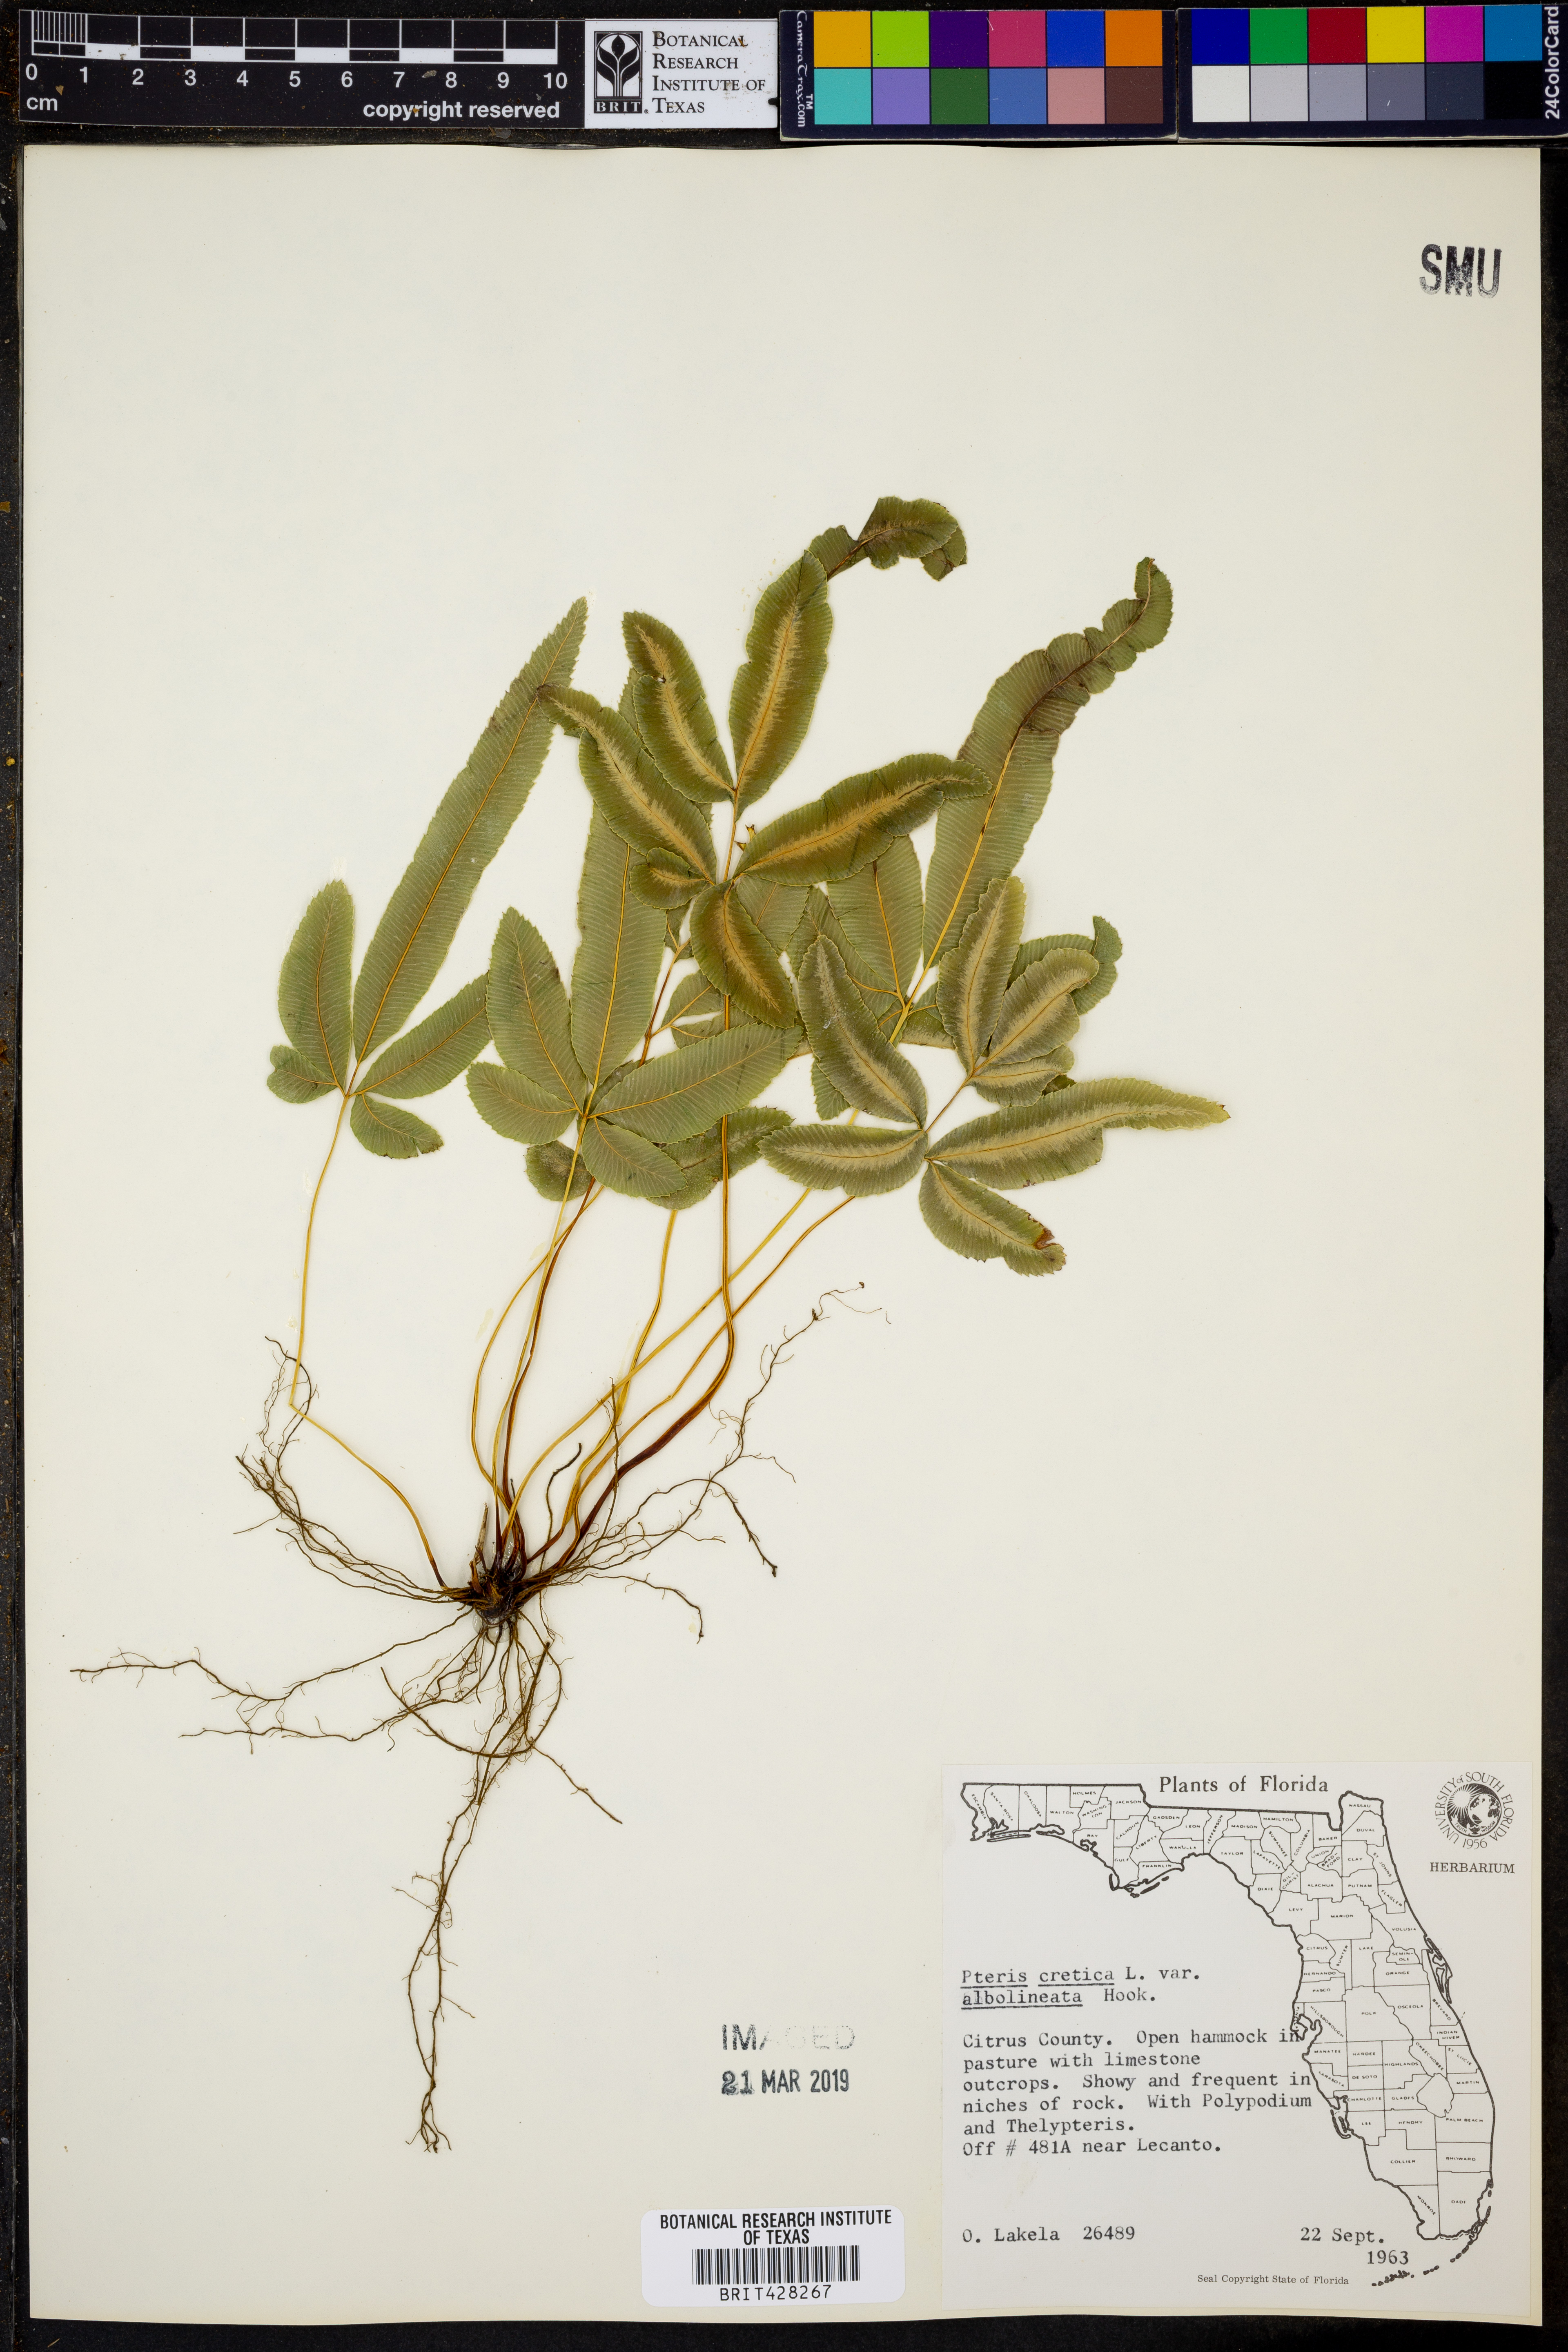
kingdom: Plantae
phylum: Tracheophyta
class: Polypodiopsida
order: Polypodiales
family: Pteridaceae
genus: Pteris
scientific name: Pteris parkeri
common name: Cretan brake
